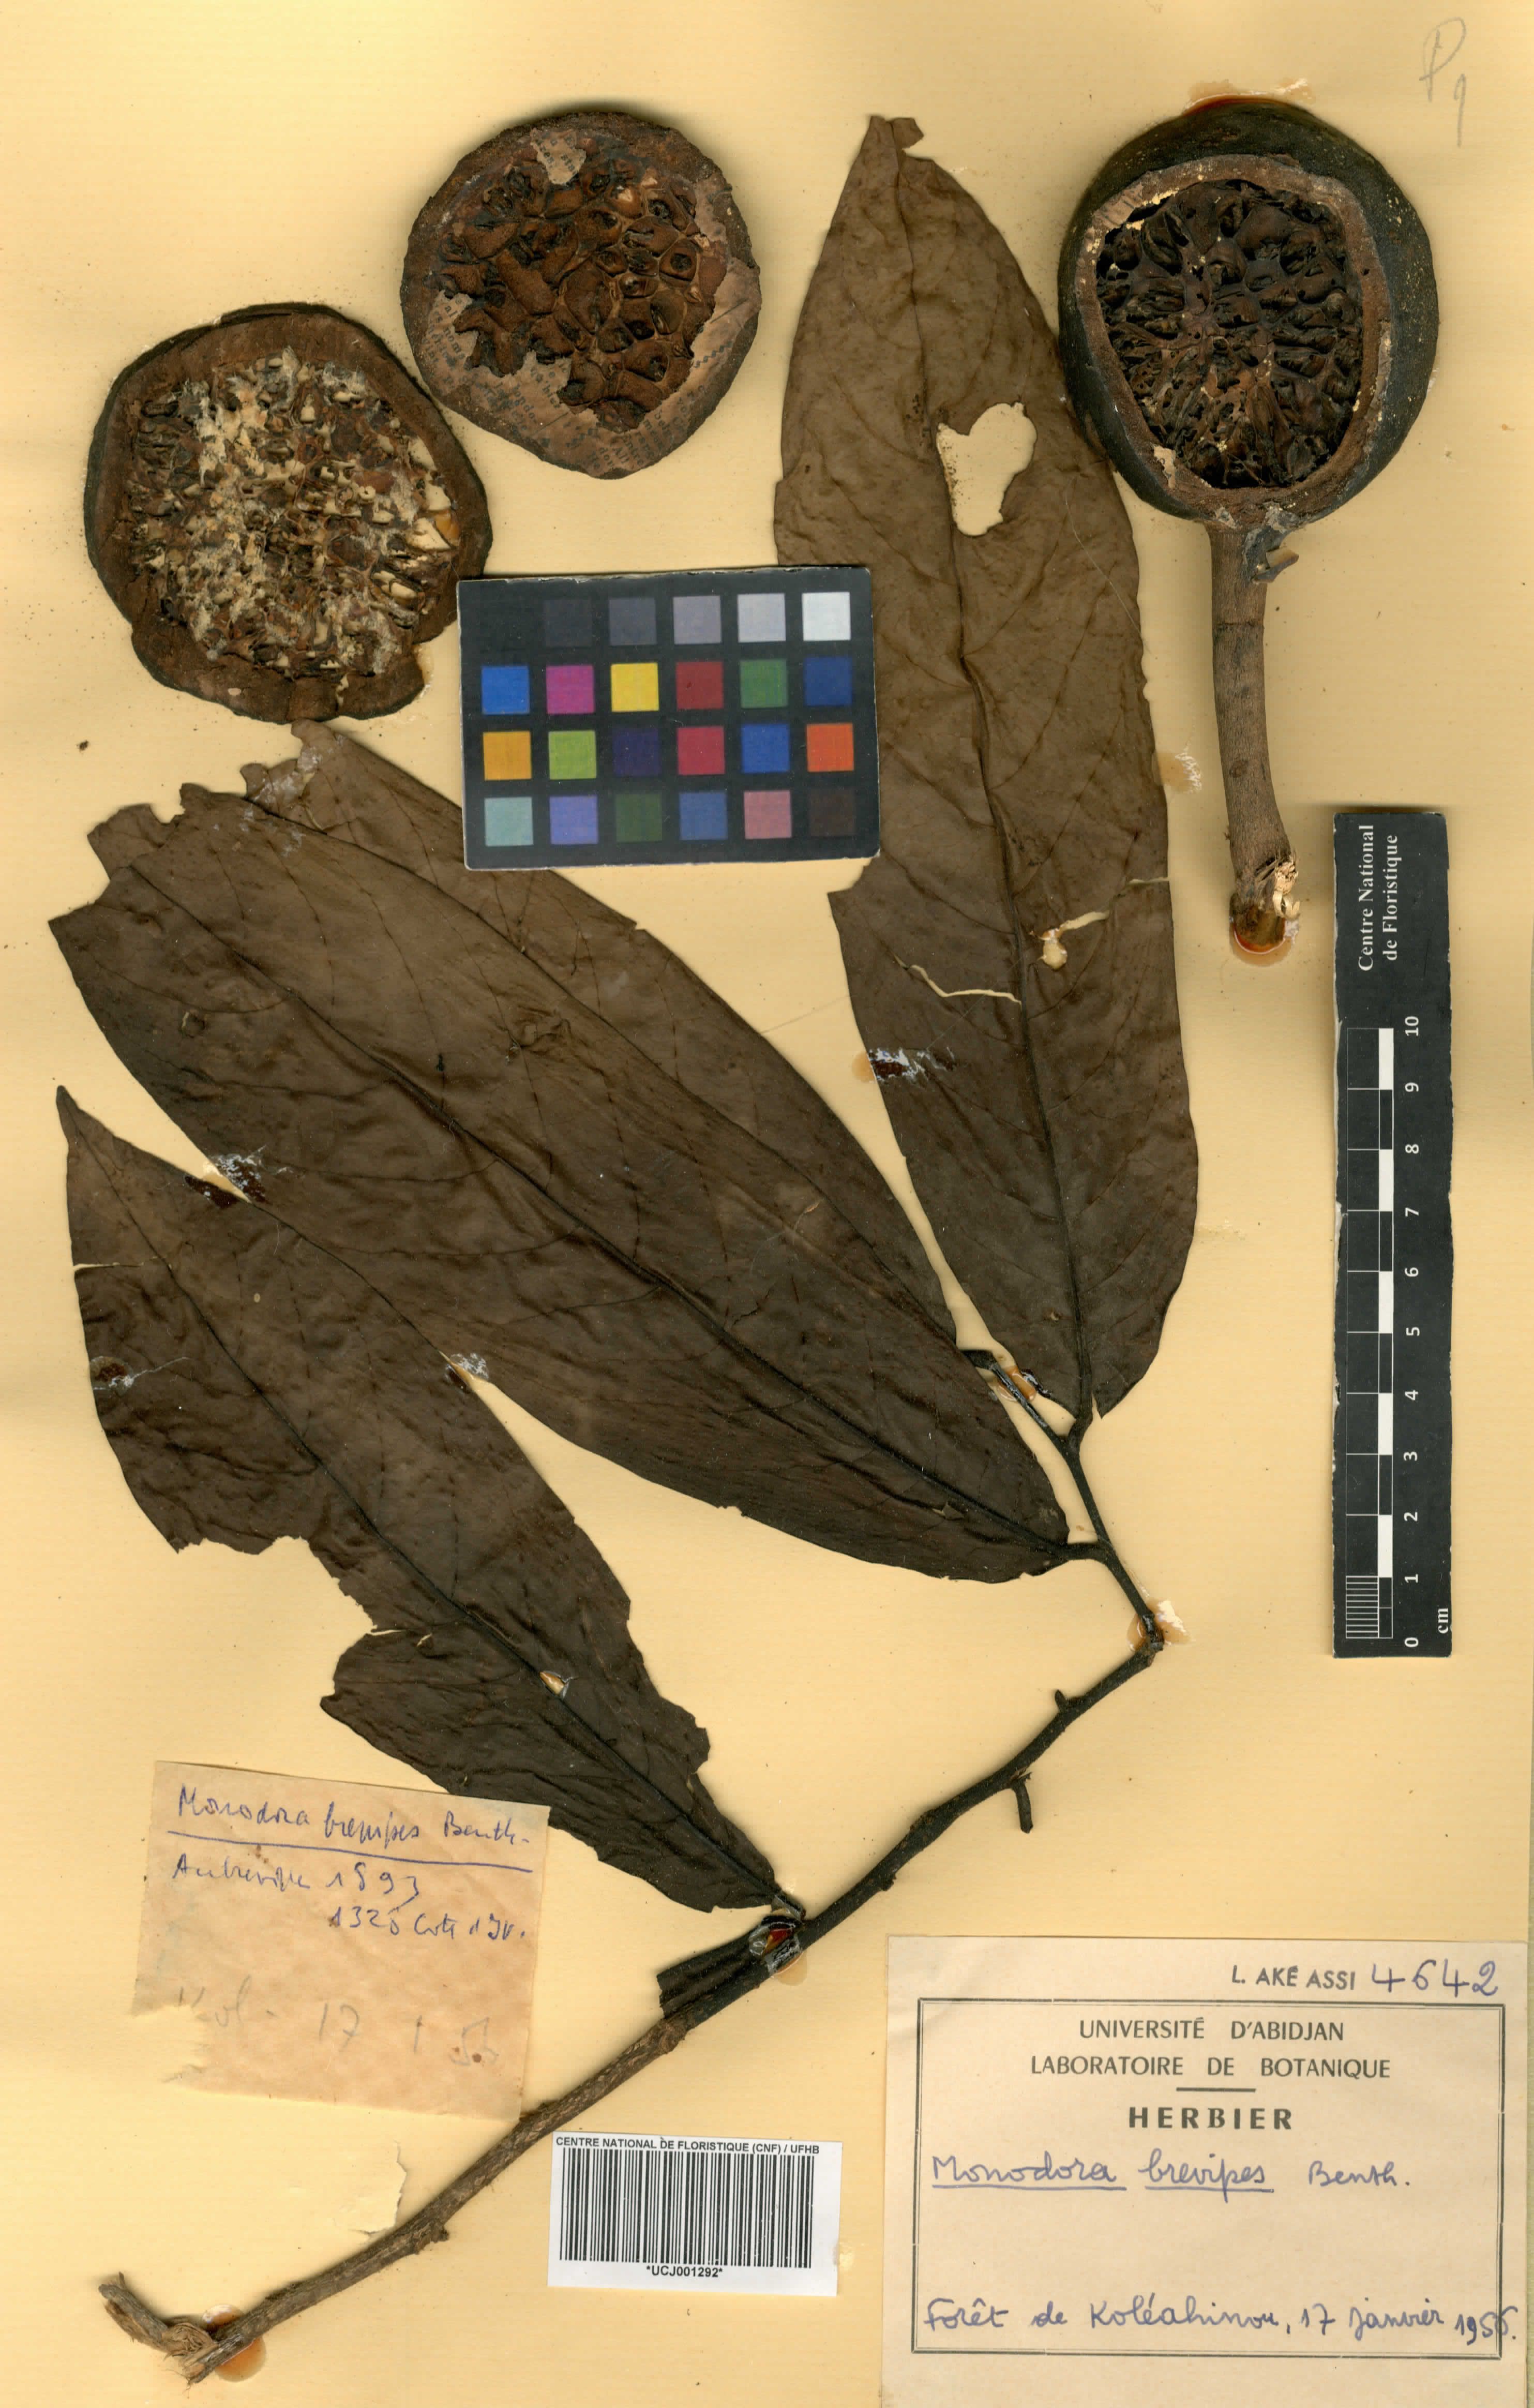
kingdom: Plantae
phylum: Tracheophyta
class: Magnoliopsida
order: Magnoliales
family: Annonaceae
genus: Monodora
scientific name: Monodora undulata
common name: Yellow-flower-nutmeg
